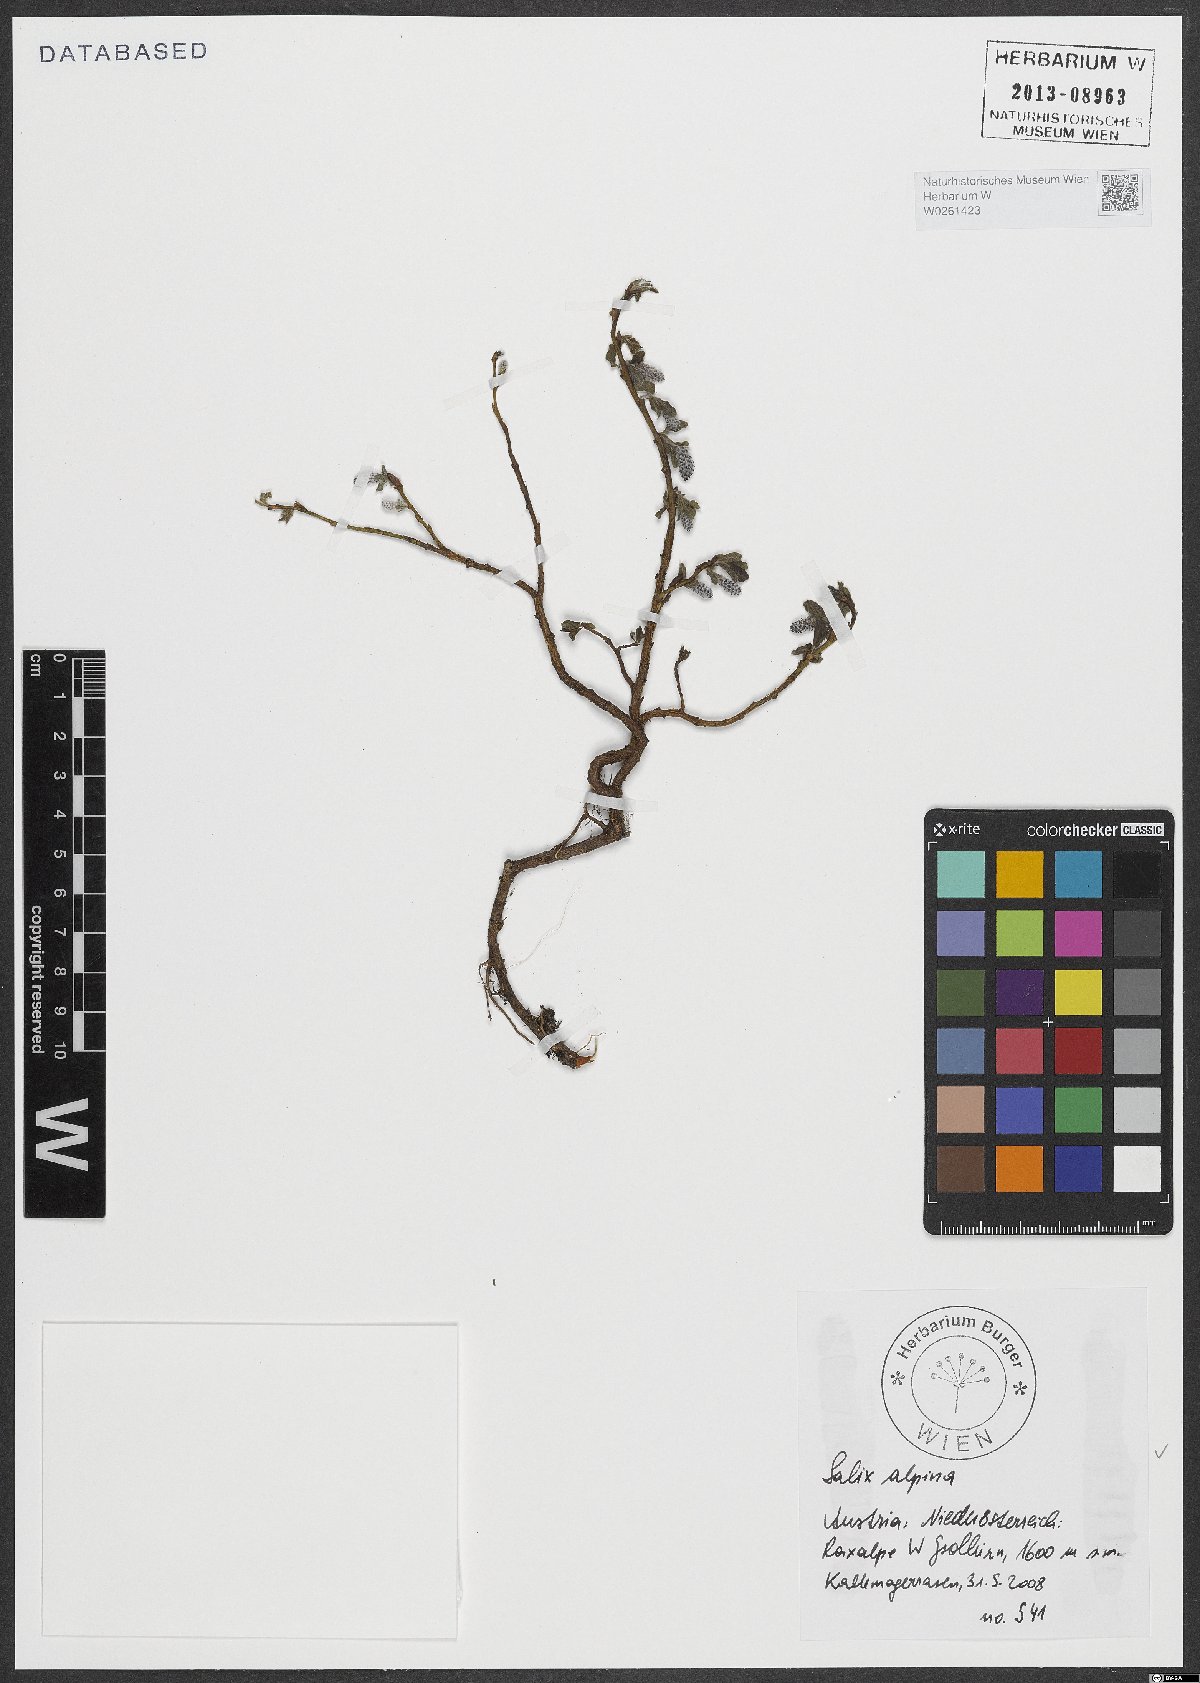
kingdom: Plantae
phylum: Tracheophyta
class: Magnoliopsida
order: Malpighiales
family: Salicaceae
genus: Salix
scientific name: Salix alpina
